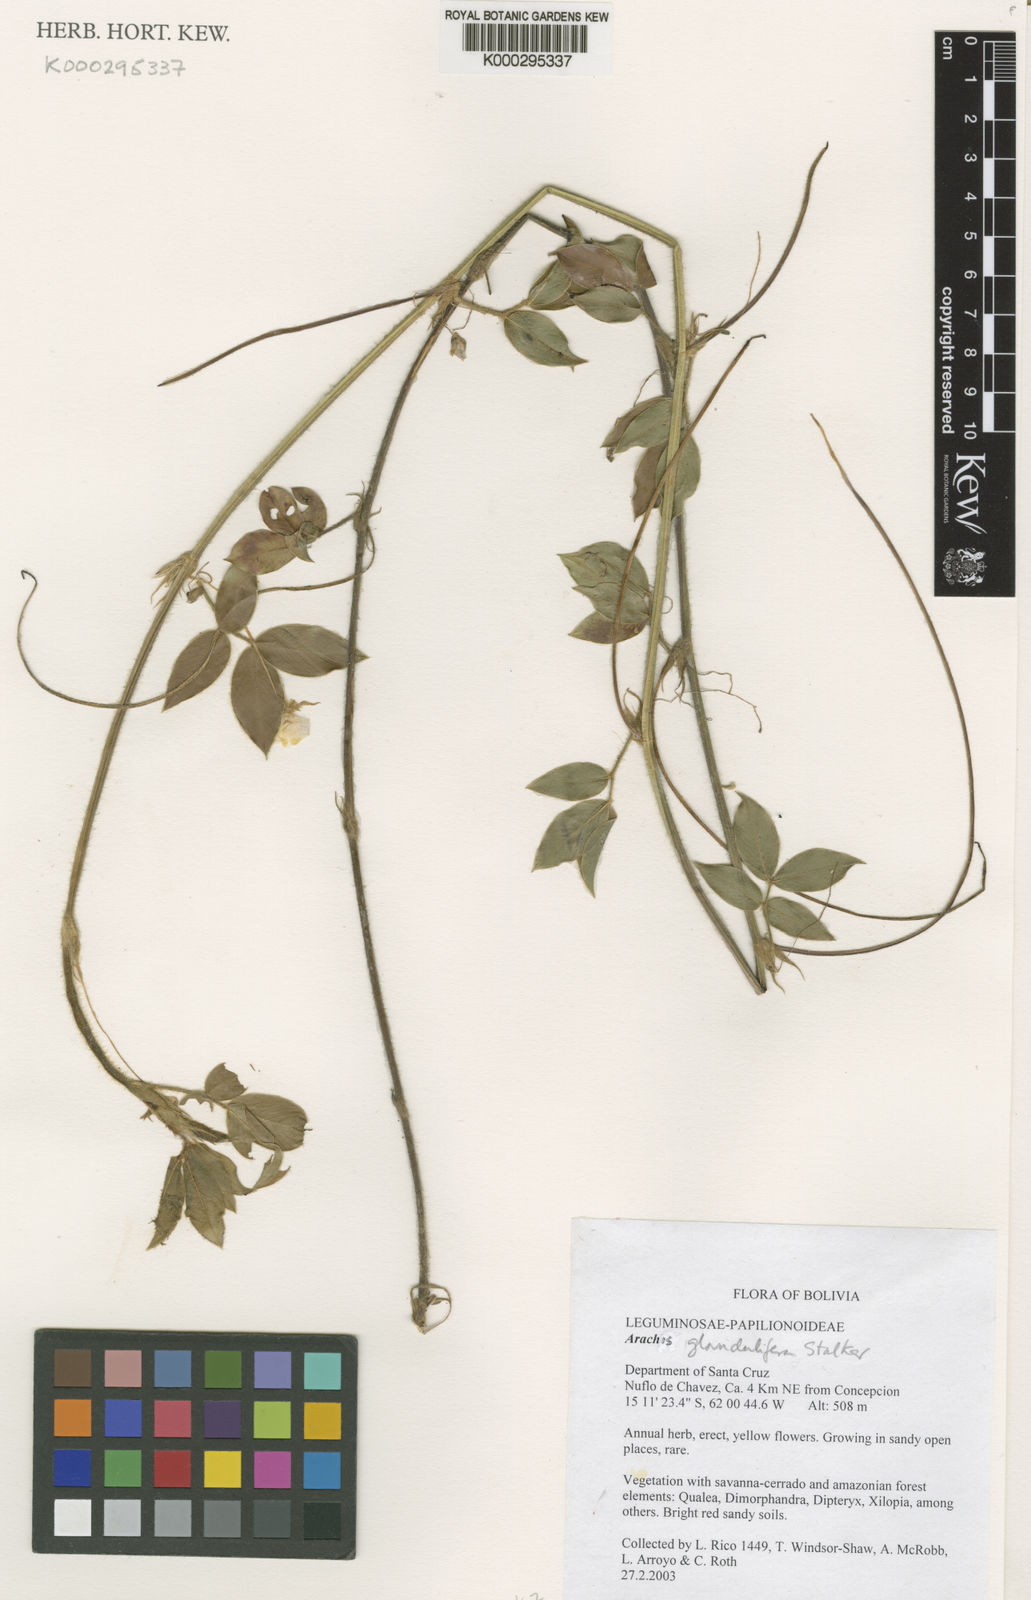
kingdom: Plantae
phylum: Tracheophyta
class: Magnoliopsida
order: Fabales
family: Fabaceae
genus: Arachis
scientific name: Arachis glandulifera
